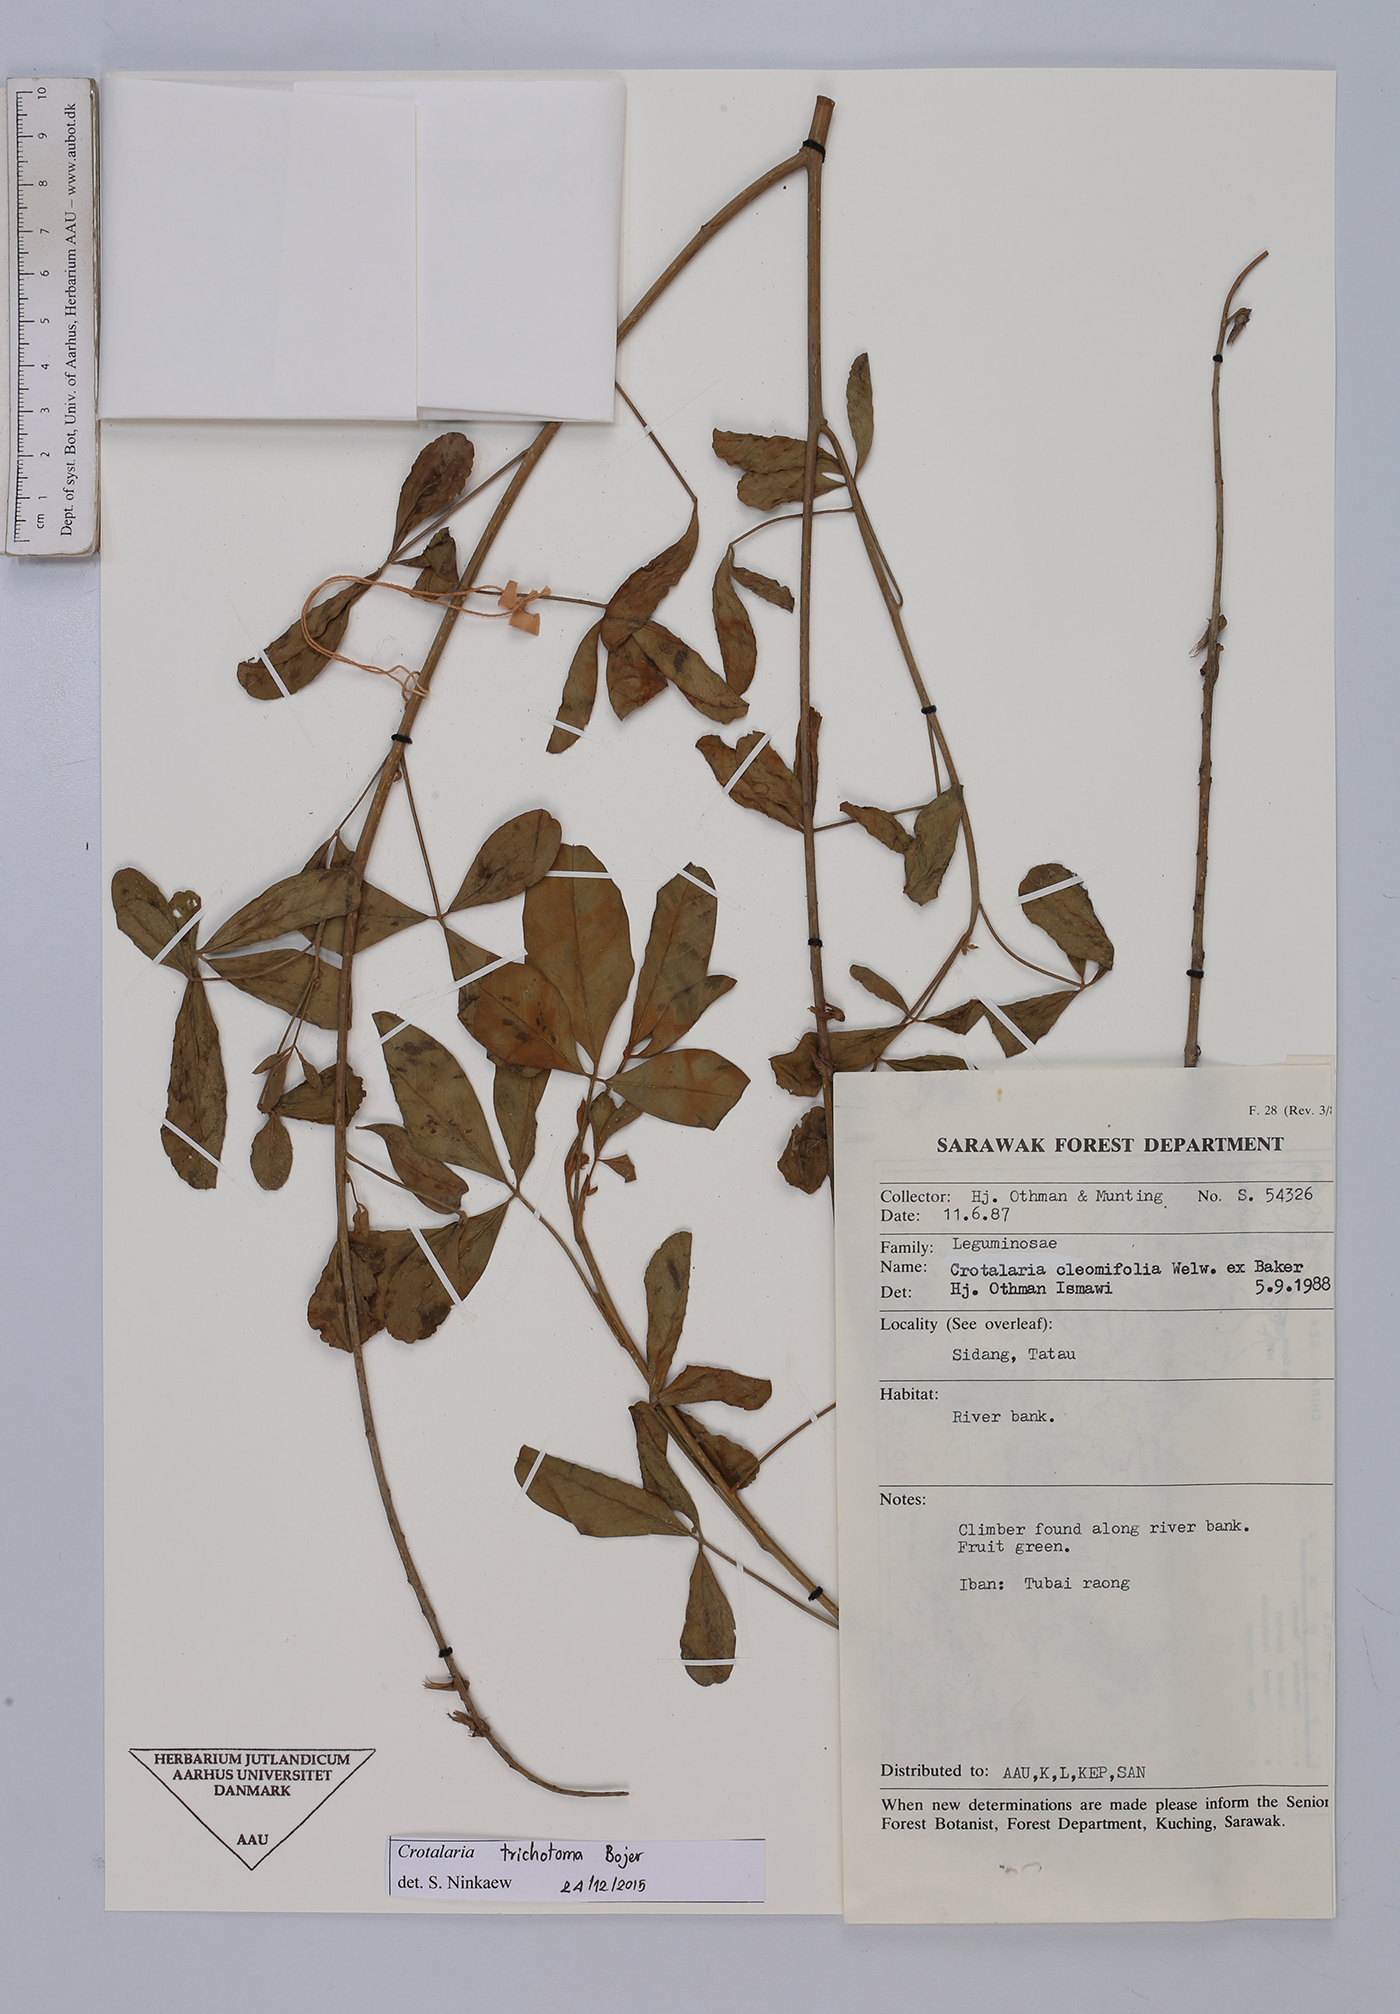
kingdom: Plantae
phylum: Tracheophyta
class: Magnoliopsida
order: Fabales
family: Fabaceae
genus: Crotalaria
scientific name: Crotalaria trichotoma
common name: West indian rattlebox
